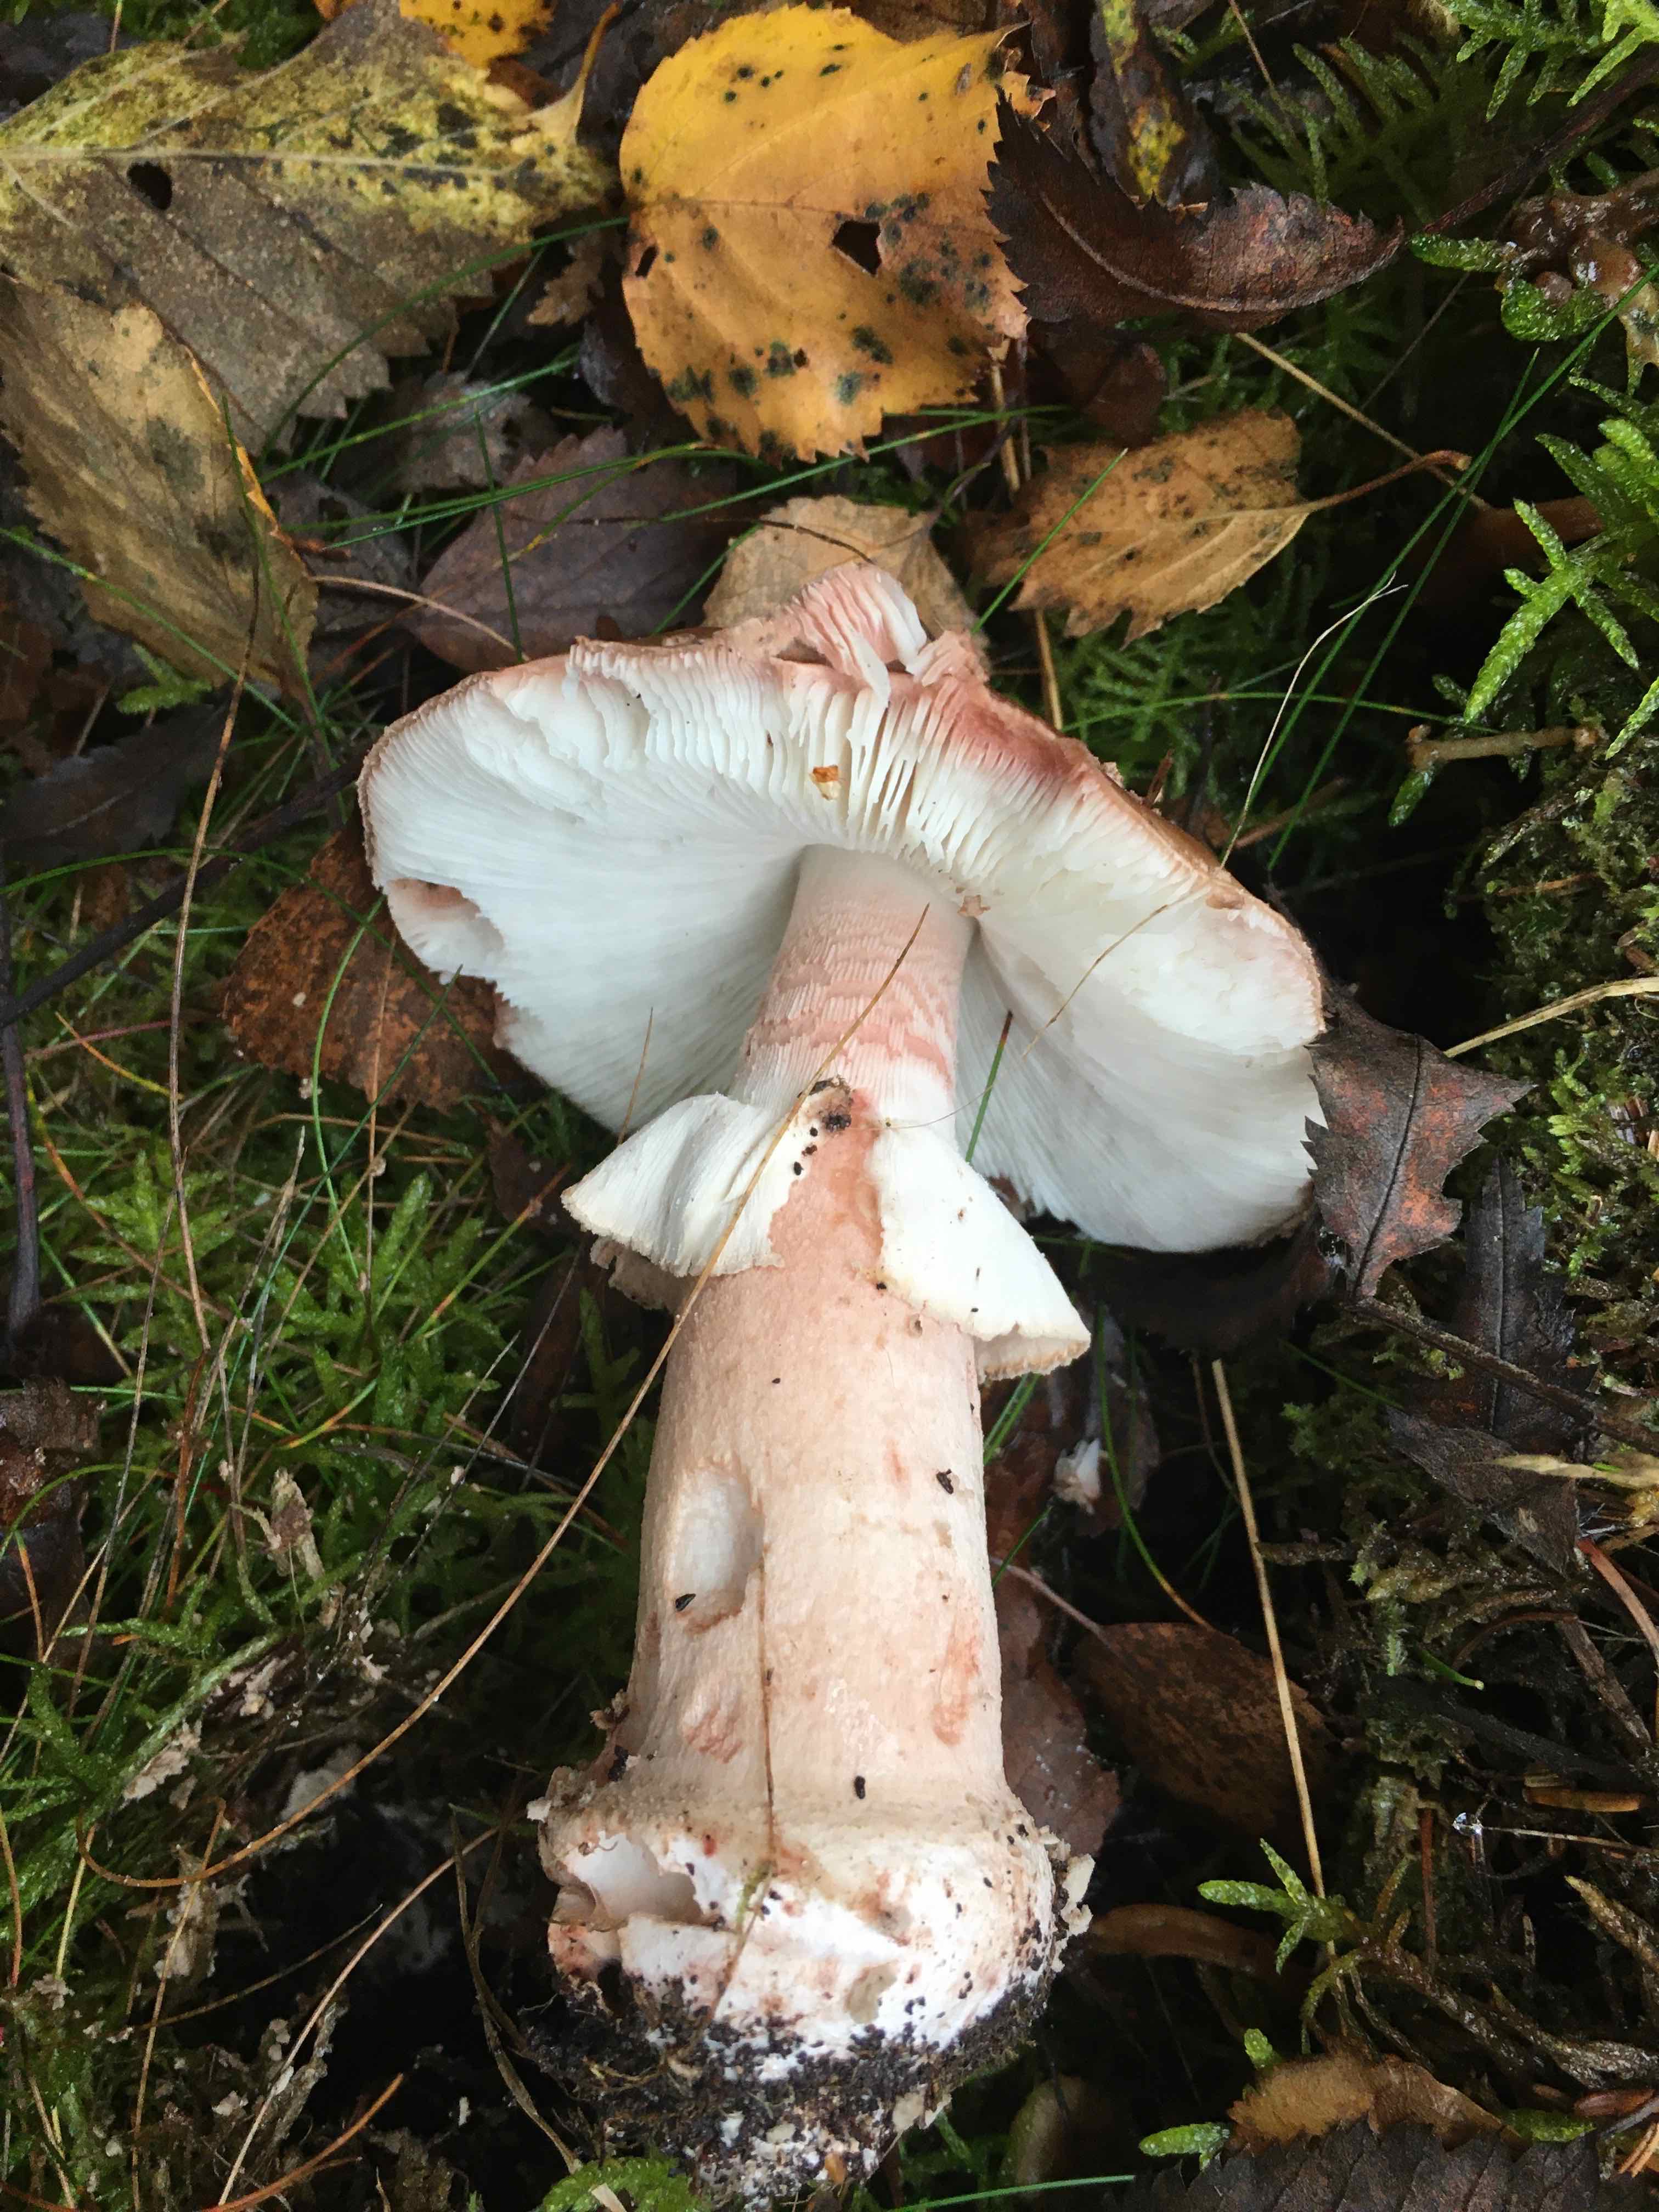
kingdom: Fungi
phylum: Basidiomycota
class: Agaricomycetes
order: Agaricales
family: Amanitaceae
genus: Amanita
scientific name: Amanita rubescens
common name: rødmende fluesvamp
